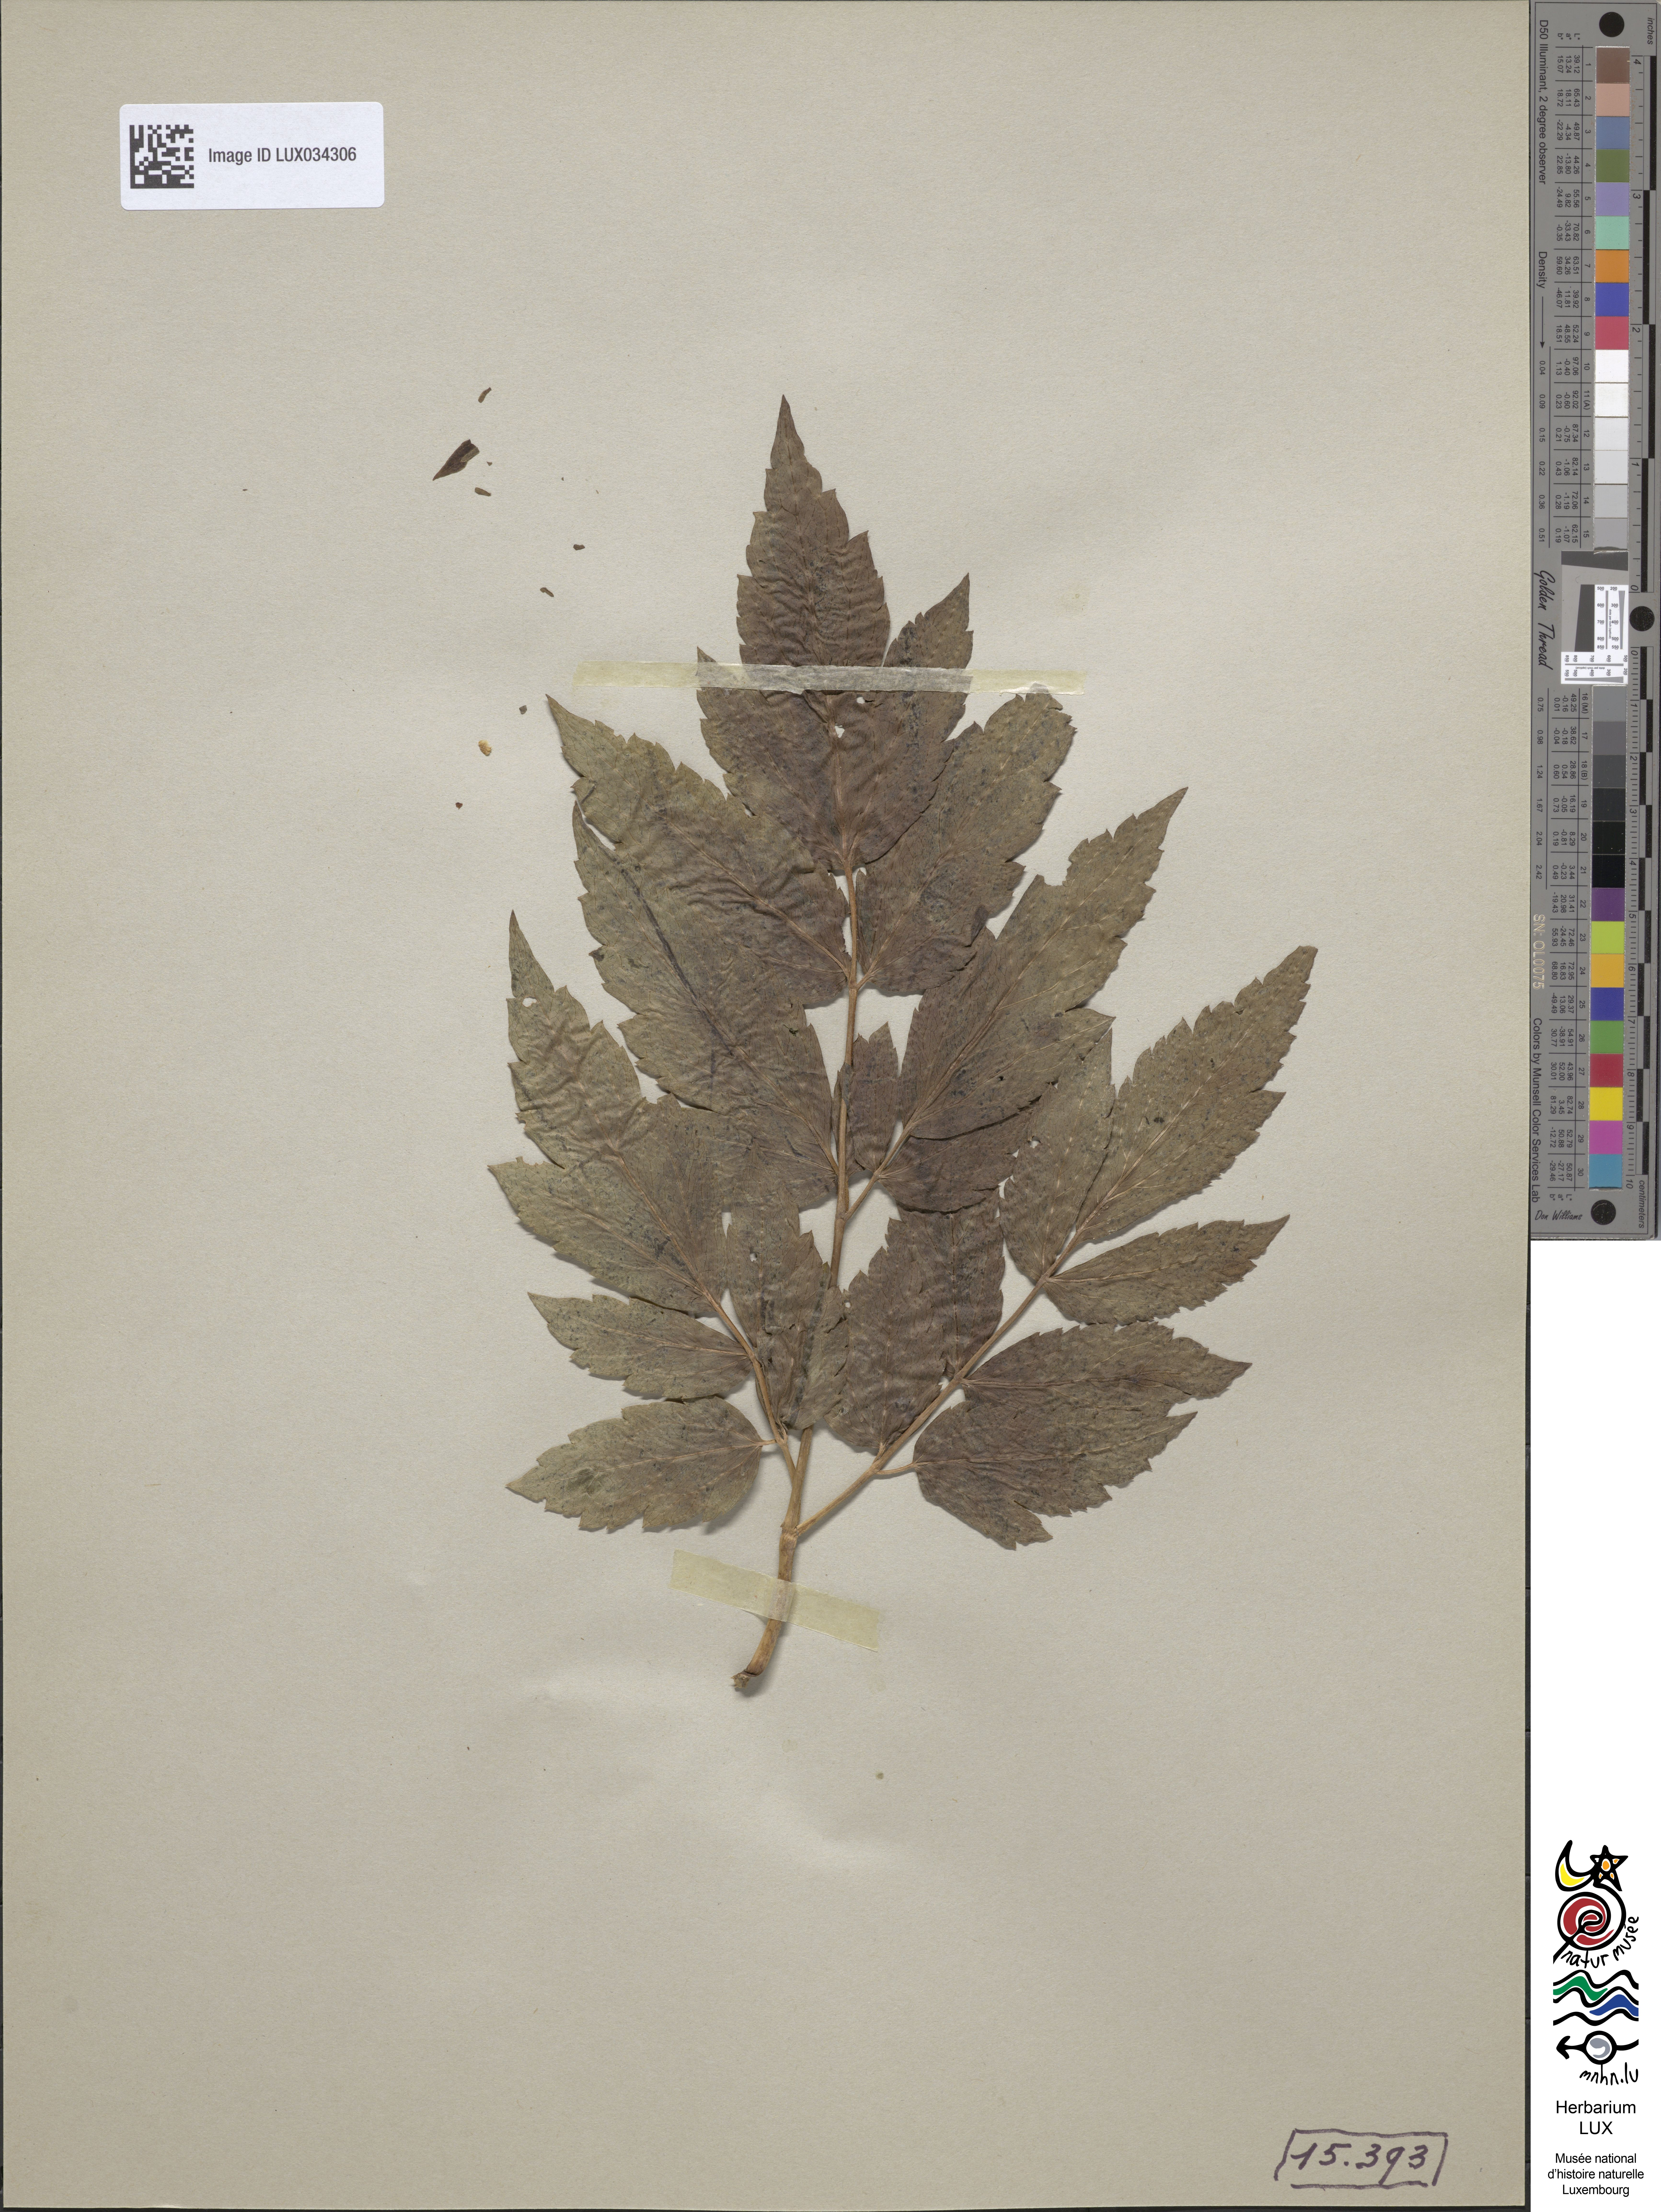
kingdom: Plantae
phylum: Tracheophyta
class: Magnoliopsida
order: Ranunculales
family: Ranunculaceae
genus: Actaea
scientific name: Actaea cimicifuga
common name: Chinese cimicifuga
